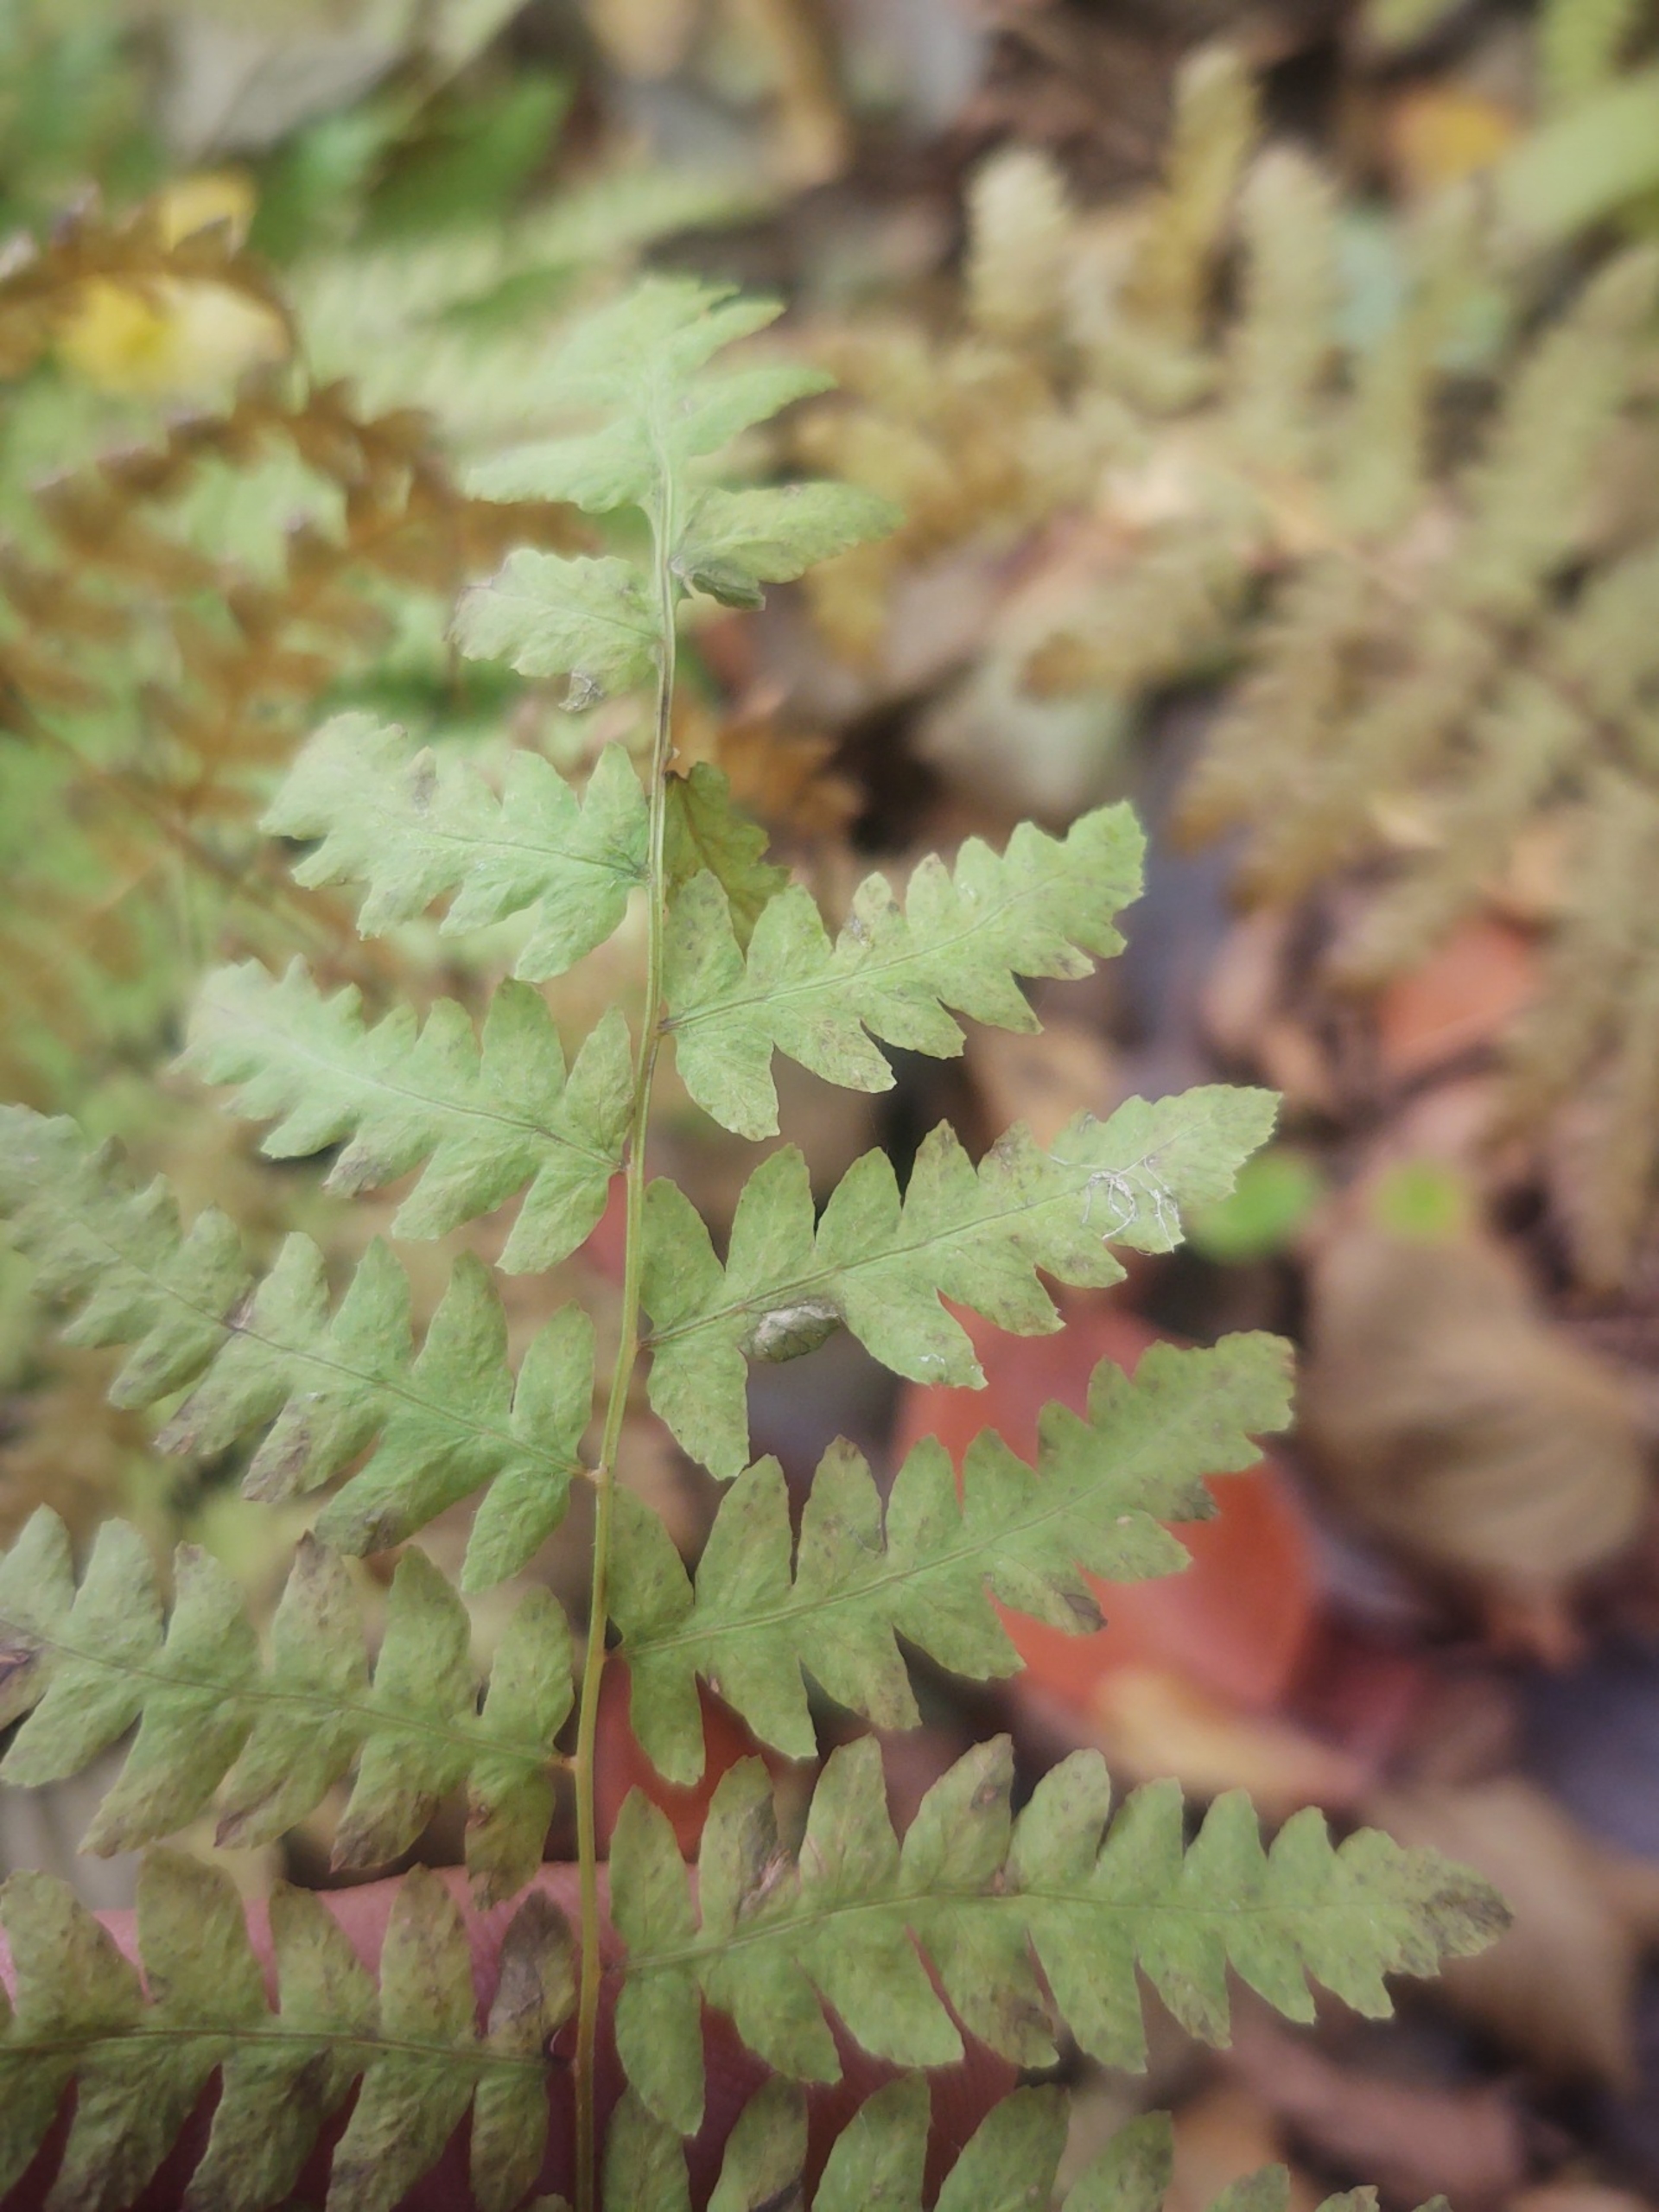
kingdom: Plantae
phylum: Tracheophyta
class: Polypodiopsida
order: Polypodiales
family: Thelypteridaceae
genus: Thelypteris
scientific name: Thelypteris palustris
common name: Kærmangeløv
